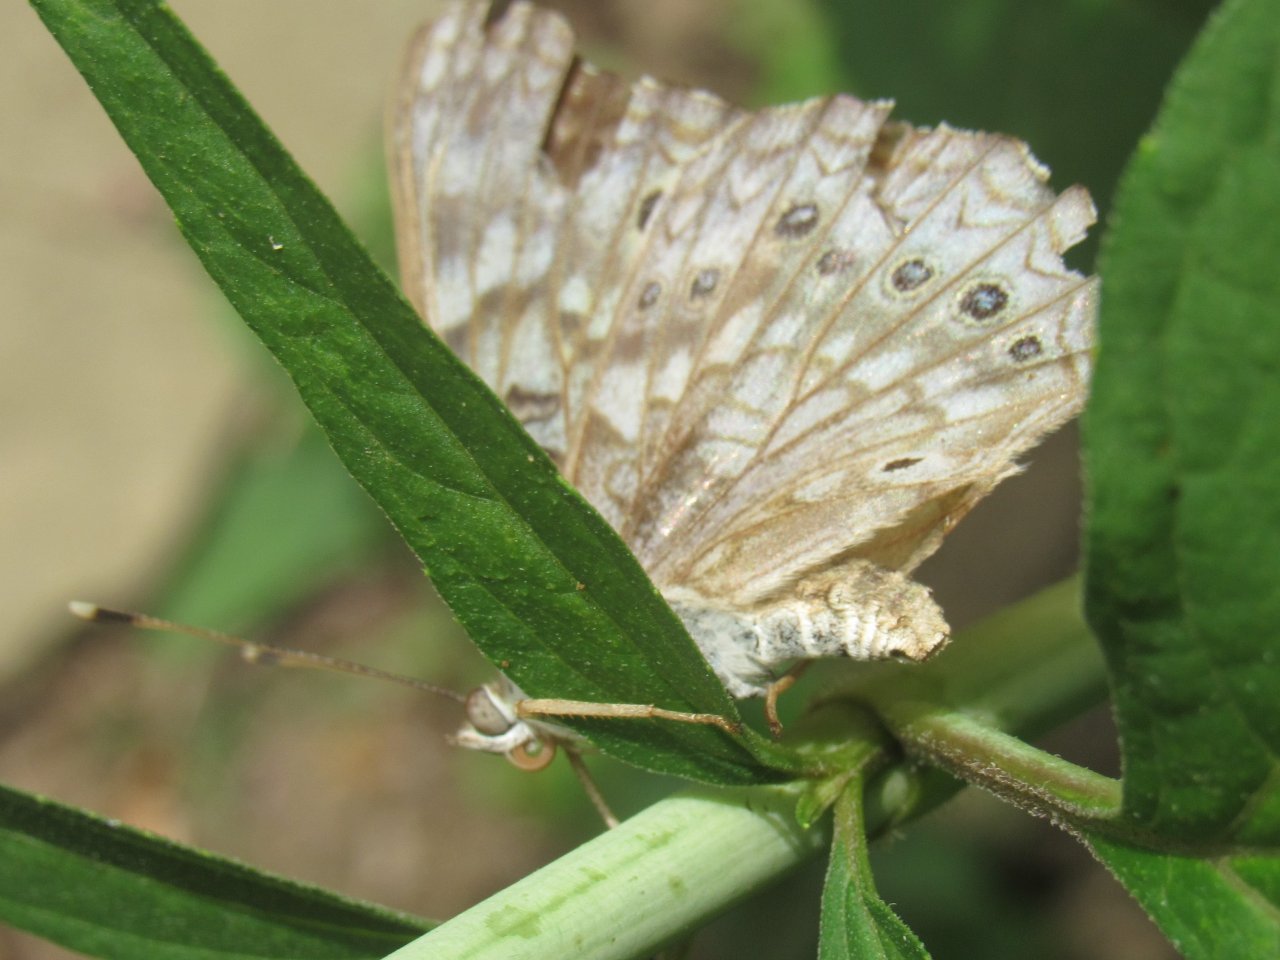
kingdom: Animalia
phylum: Arthropoda
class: Insecta
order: Lepidoptera
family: Nymphalidae
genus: Asterocampa
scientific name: Asterocampa celtis
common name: Hackberry Emperor
